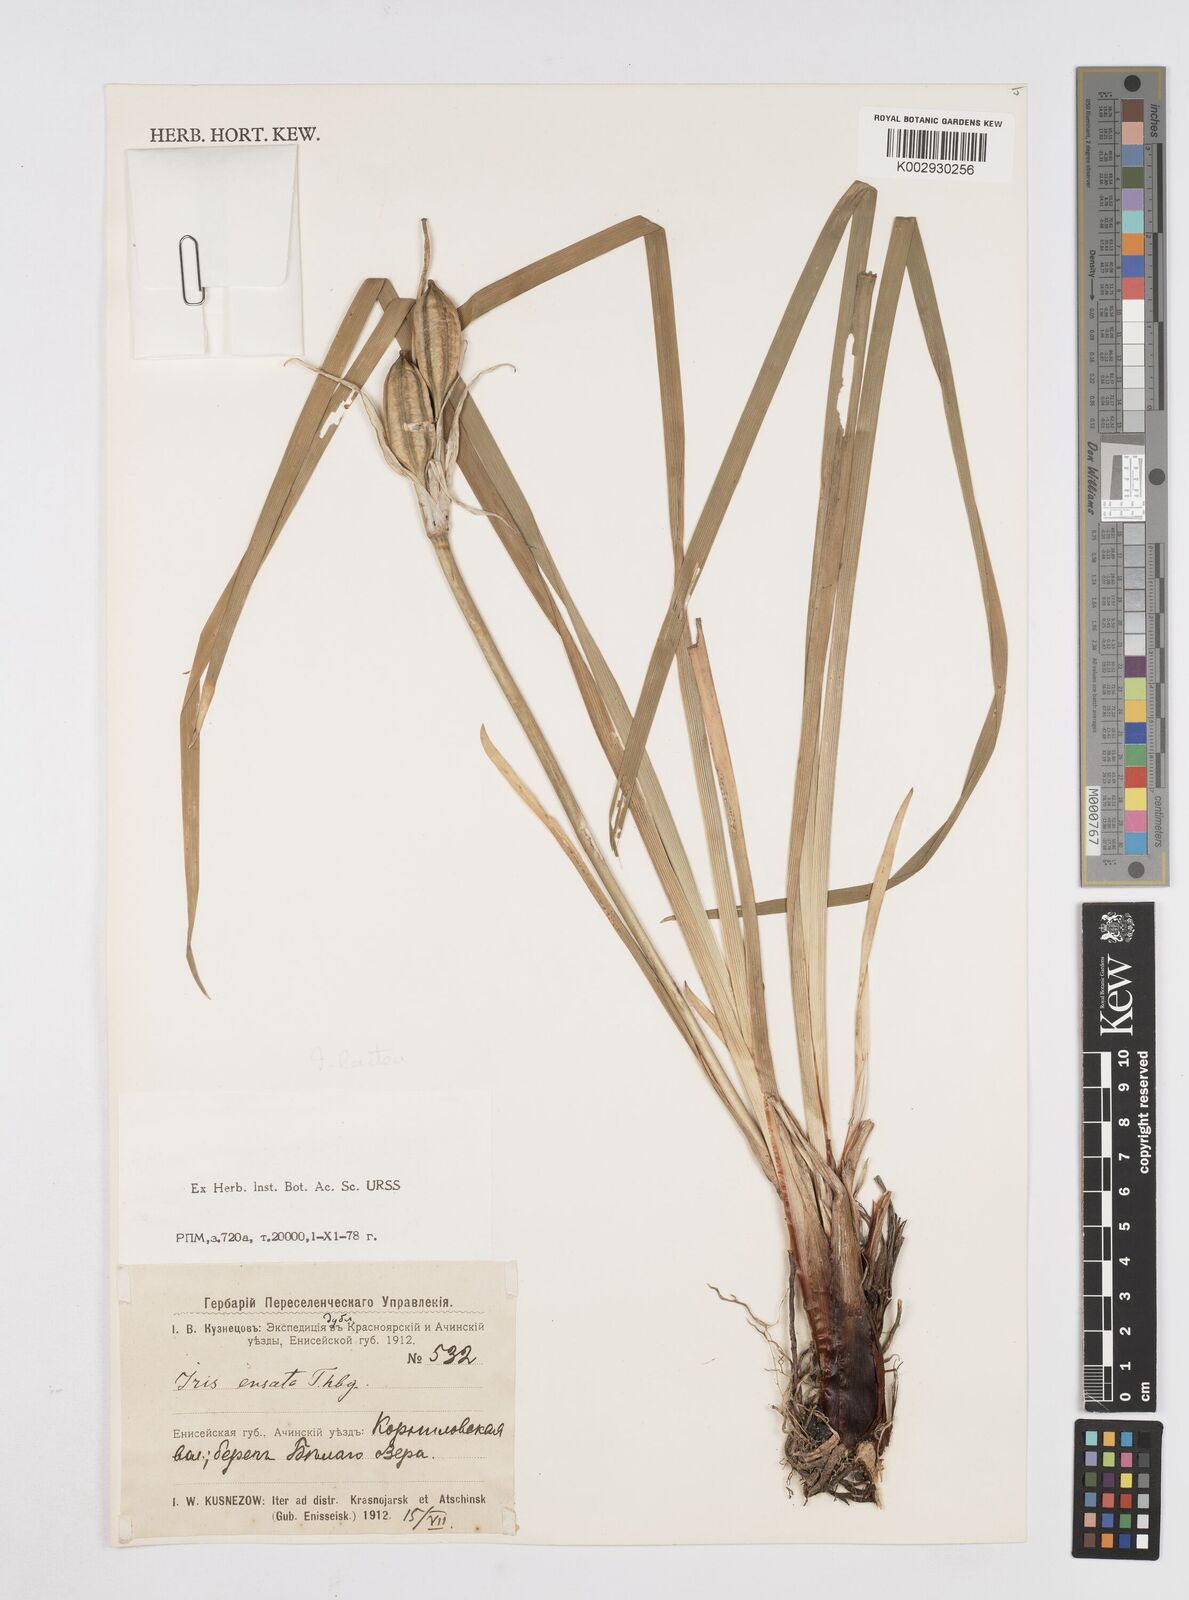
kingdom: Plantae
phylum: Tracheophyta
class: Liliopsida
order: Asparagales
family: Iridaceae
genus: Iris
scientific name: Iris lactea
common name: White-flower chinese iris
